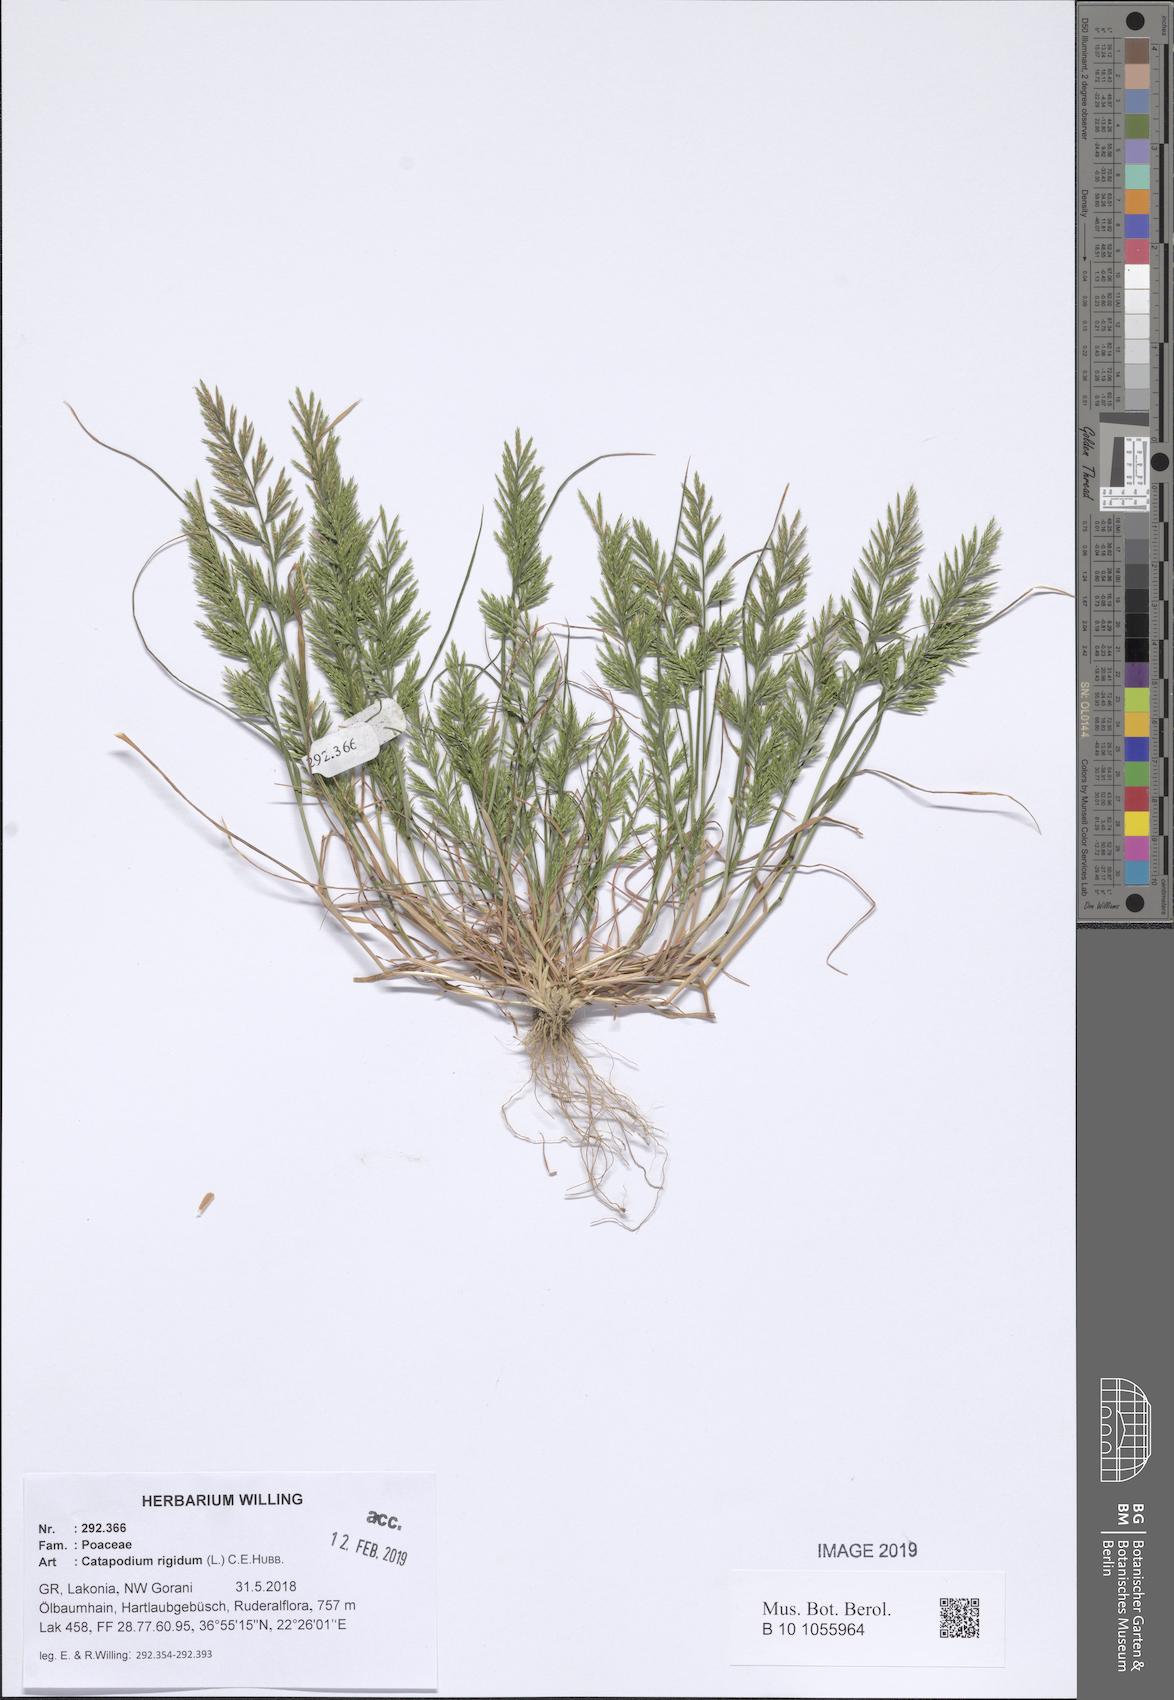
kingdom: Plantae
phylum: Tracheophyta
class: Liliopsida
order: Poales
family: Poaceae
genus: Catapodium
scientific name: Catapodium rigidum
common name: Fern-grass
